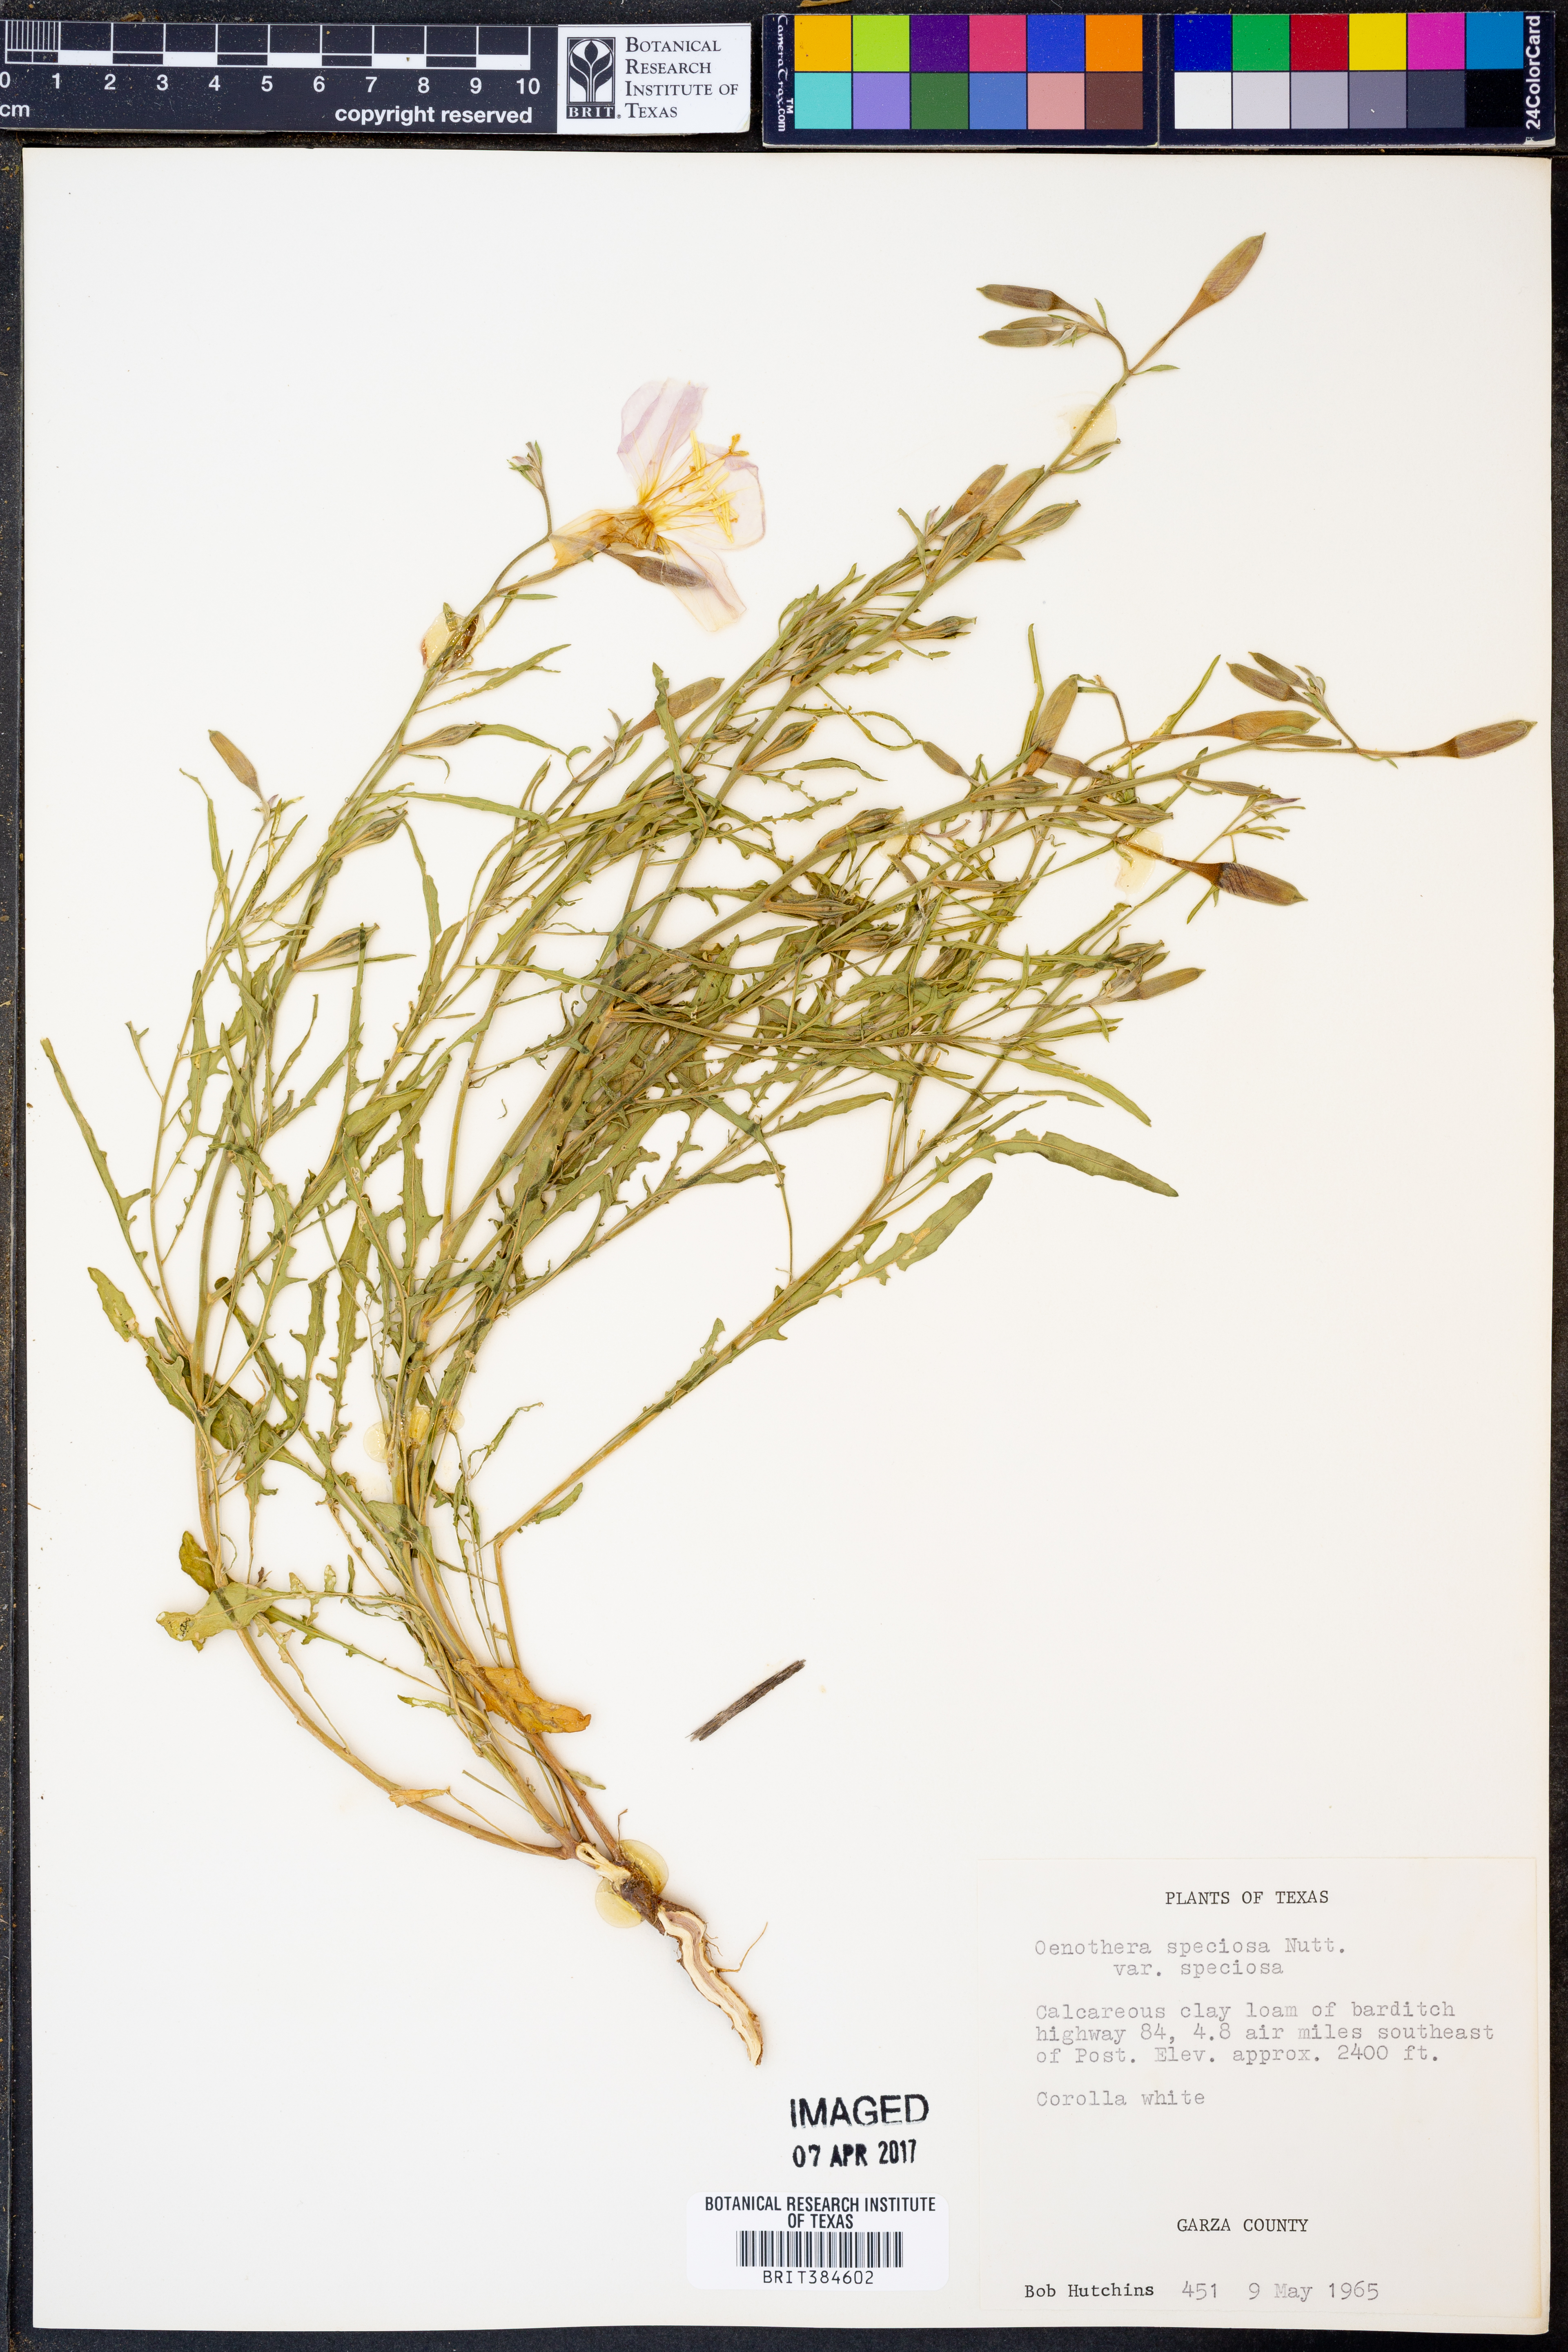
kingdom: Plantae
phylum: Tracheophyta
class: Magnoliopsida
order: Myrtales
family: Onagraceae
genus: Oenothera
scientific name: Oenothera speciosa
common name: White evening-primrose
